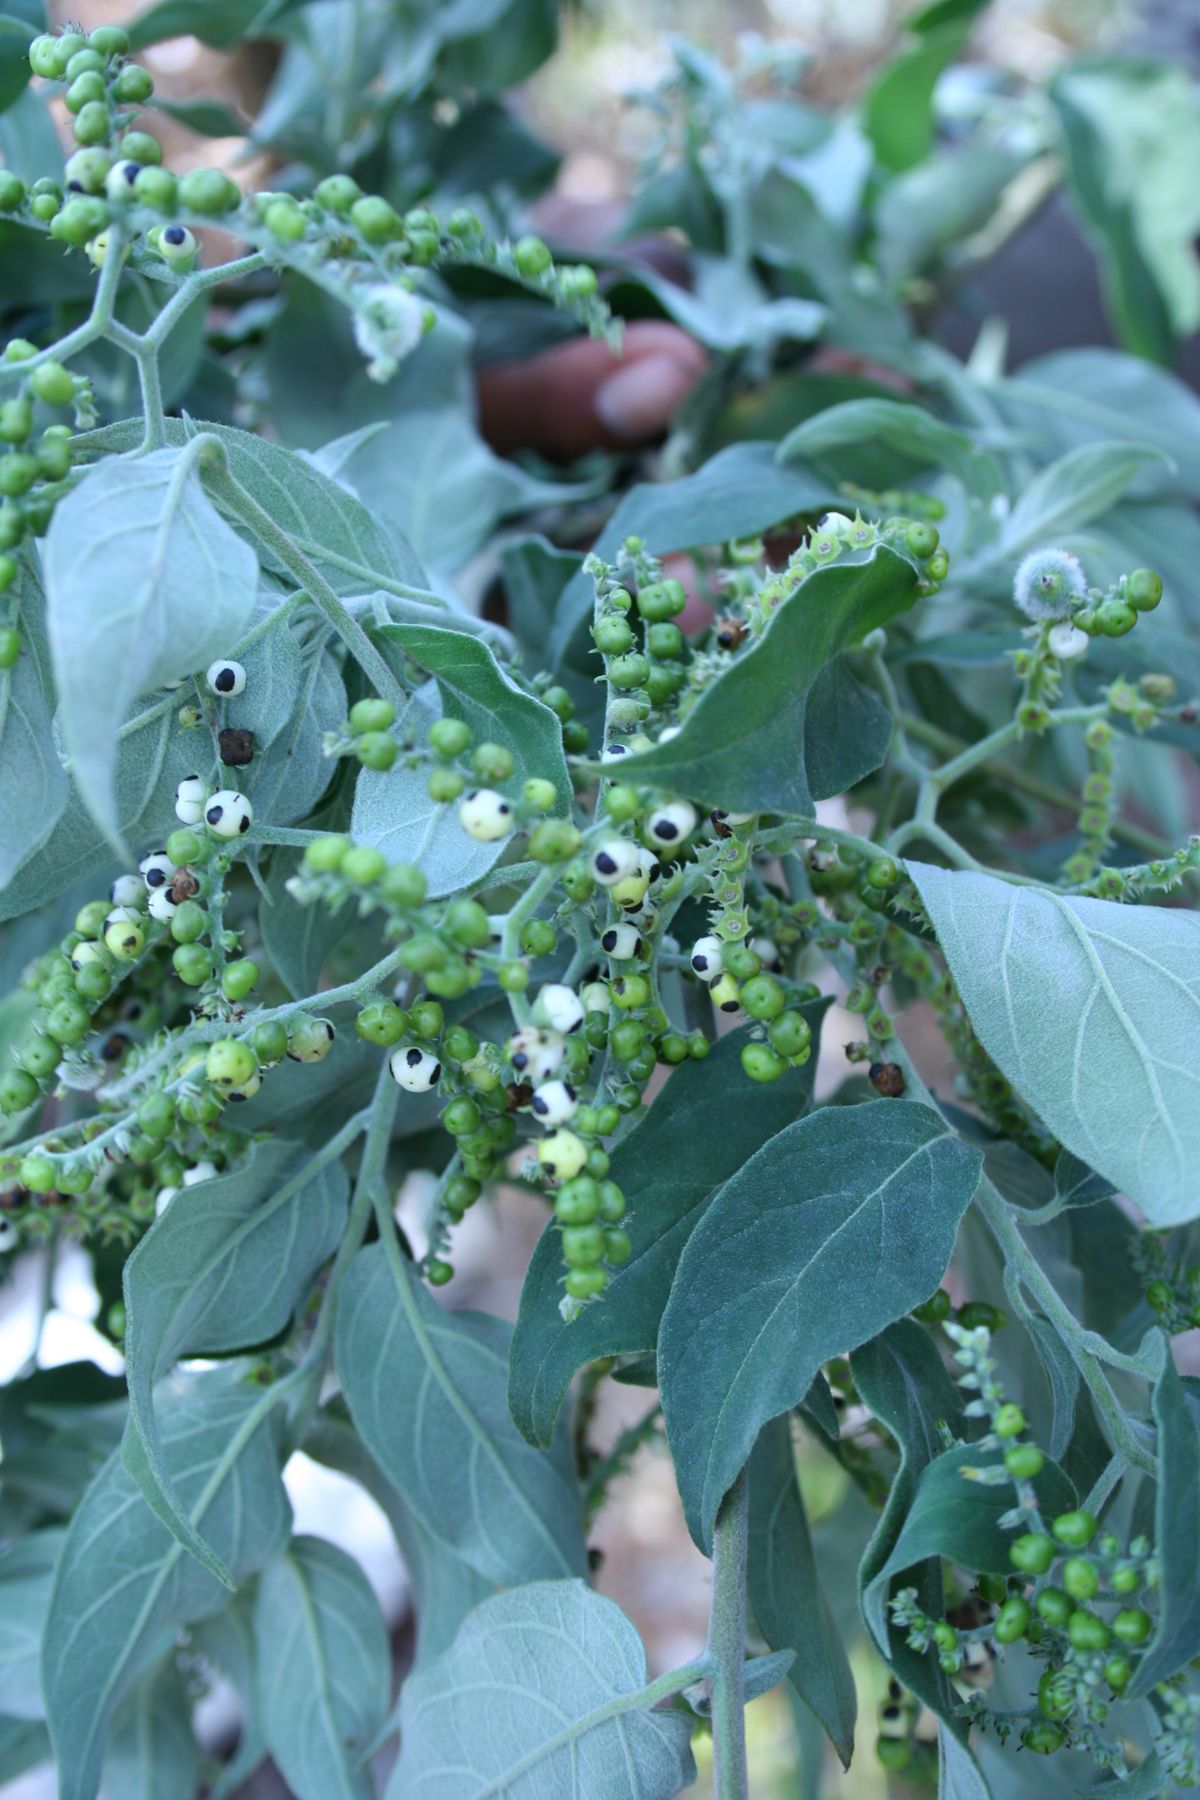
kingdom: Plantae
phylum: Tracheophyta
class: Magnoliopsida
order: Boraginales
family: Heliotropiaceae
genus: Myriopus
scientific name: Myriopus volubilis
